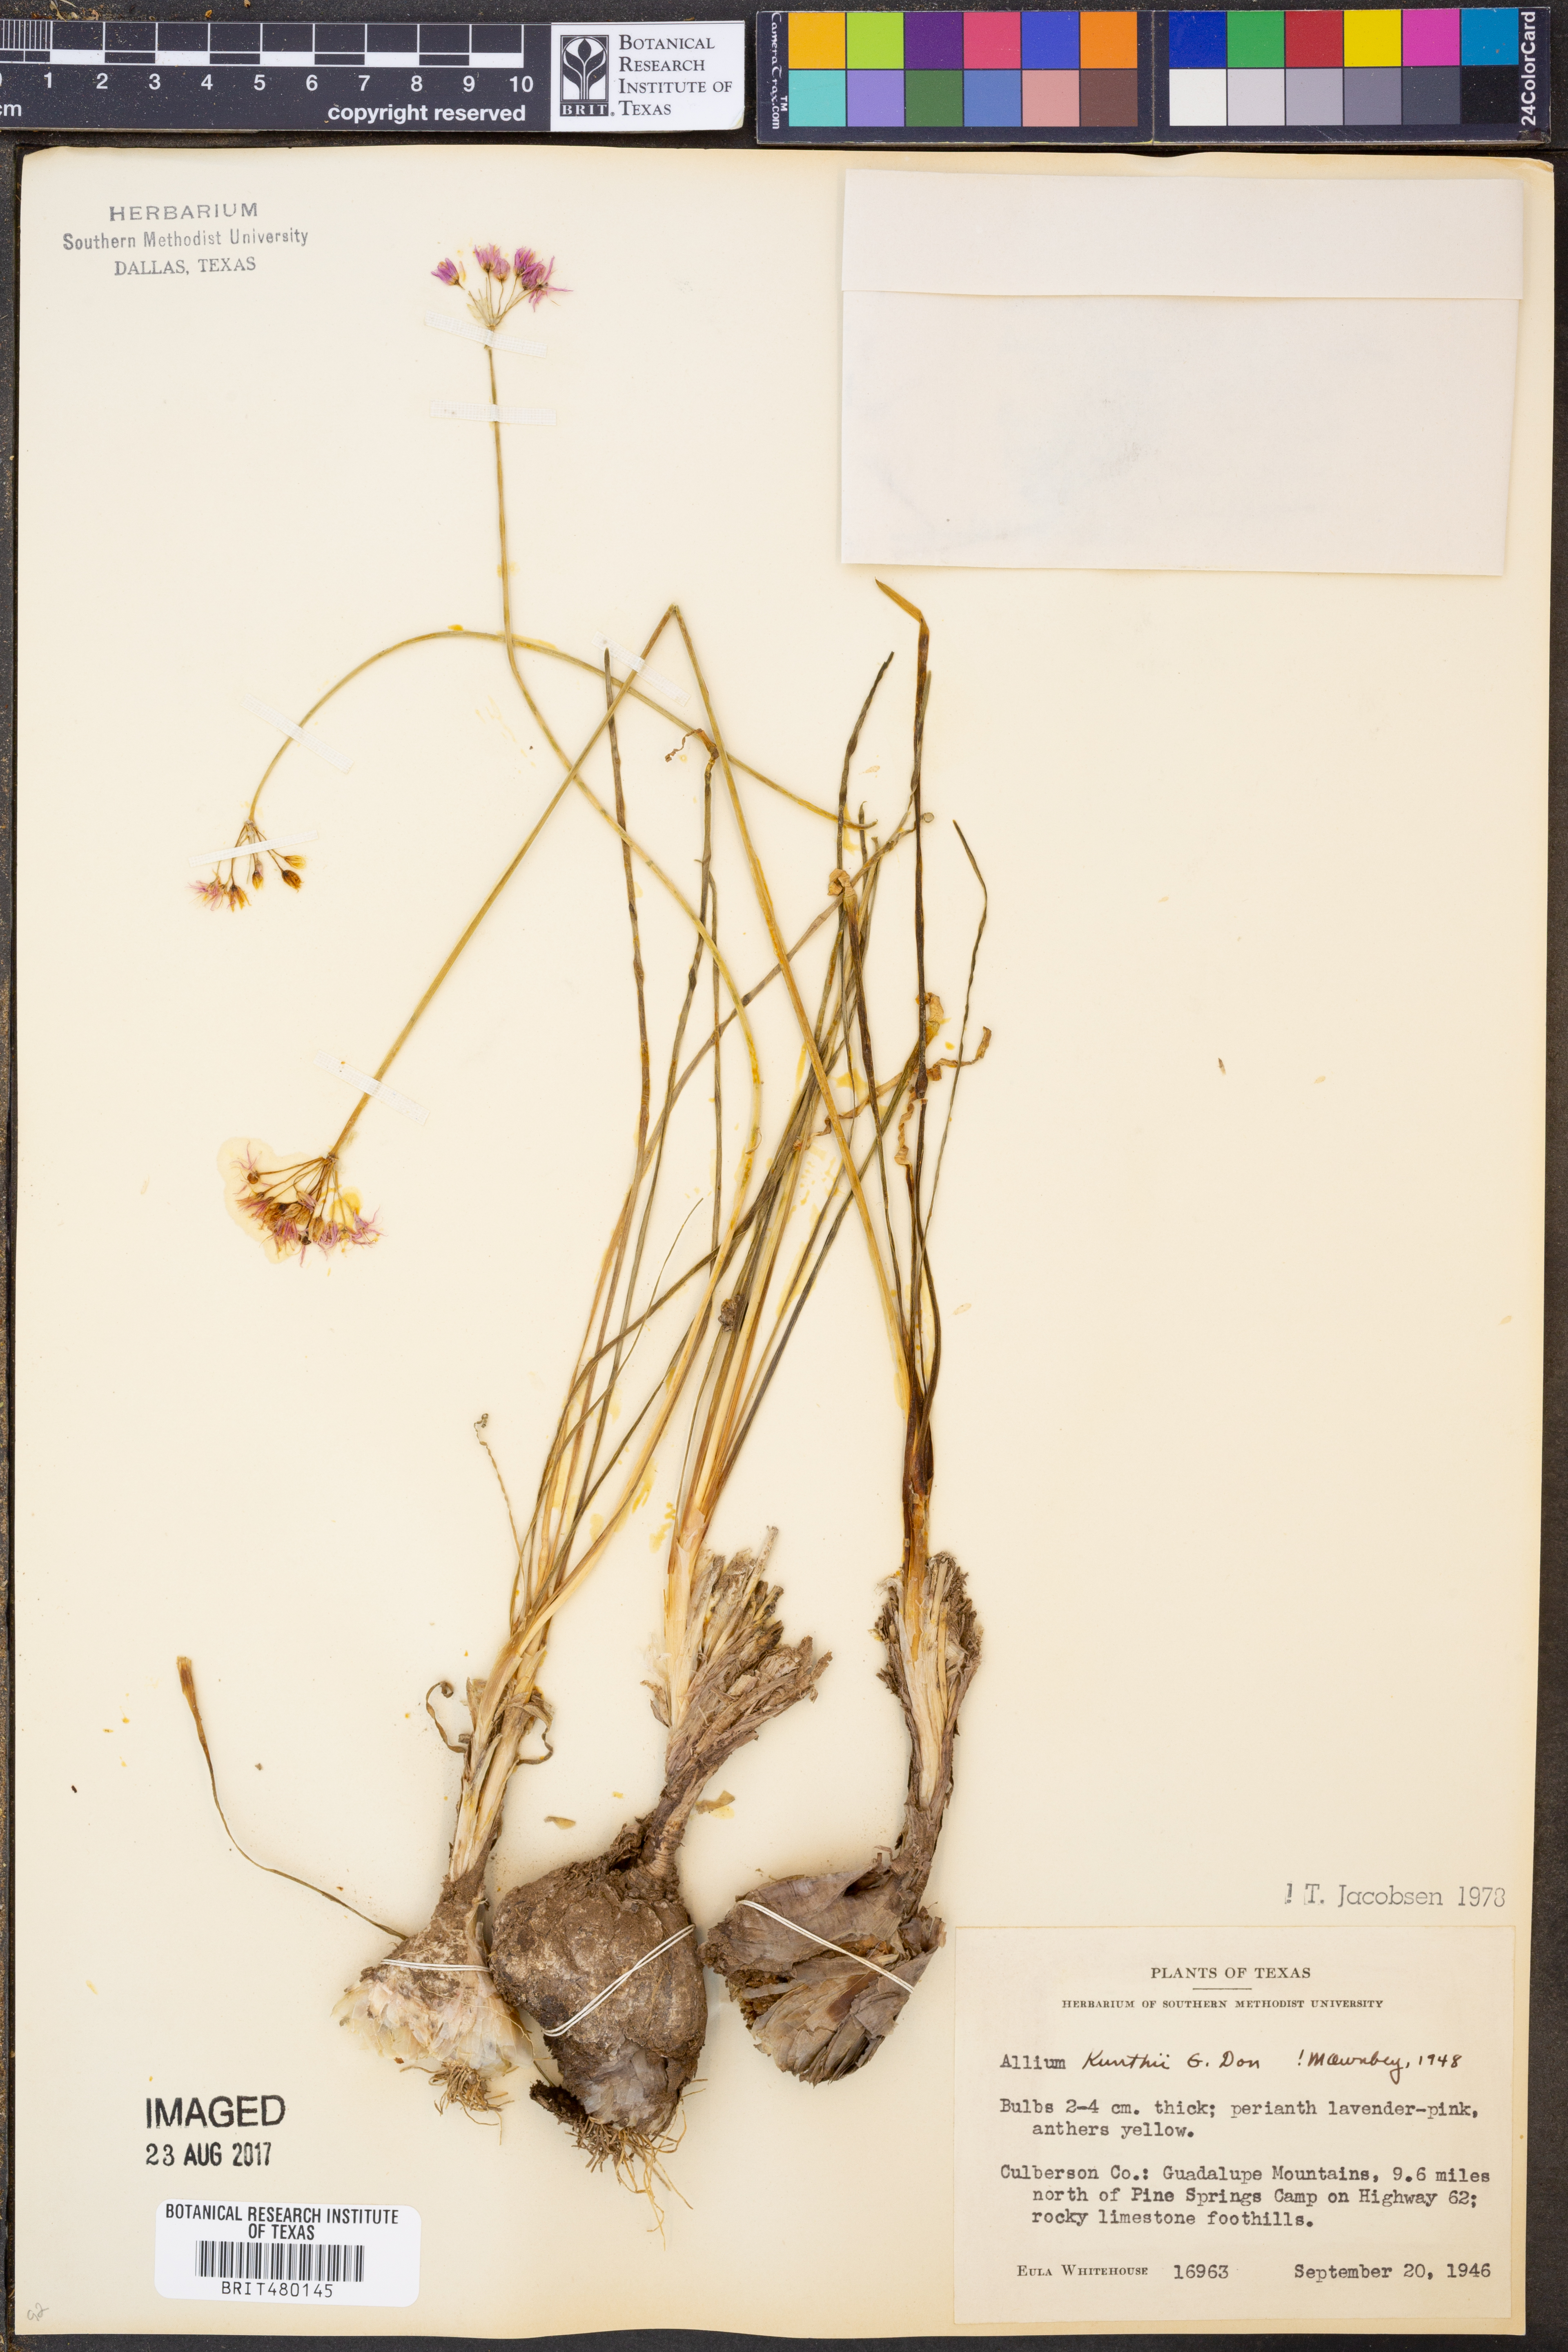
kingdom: Plantae
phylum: Tracheophyta
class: Liliopsida
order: Asparagales
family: Amaryllidaceae
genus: Allium
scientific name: Allium longifolium
